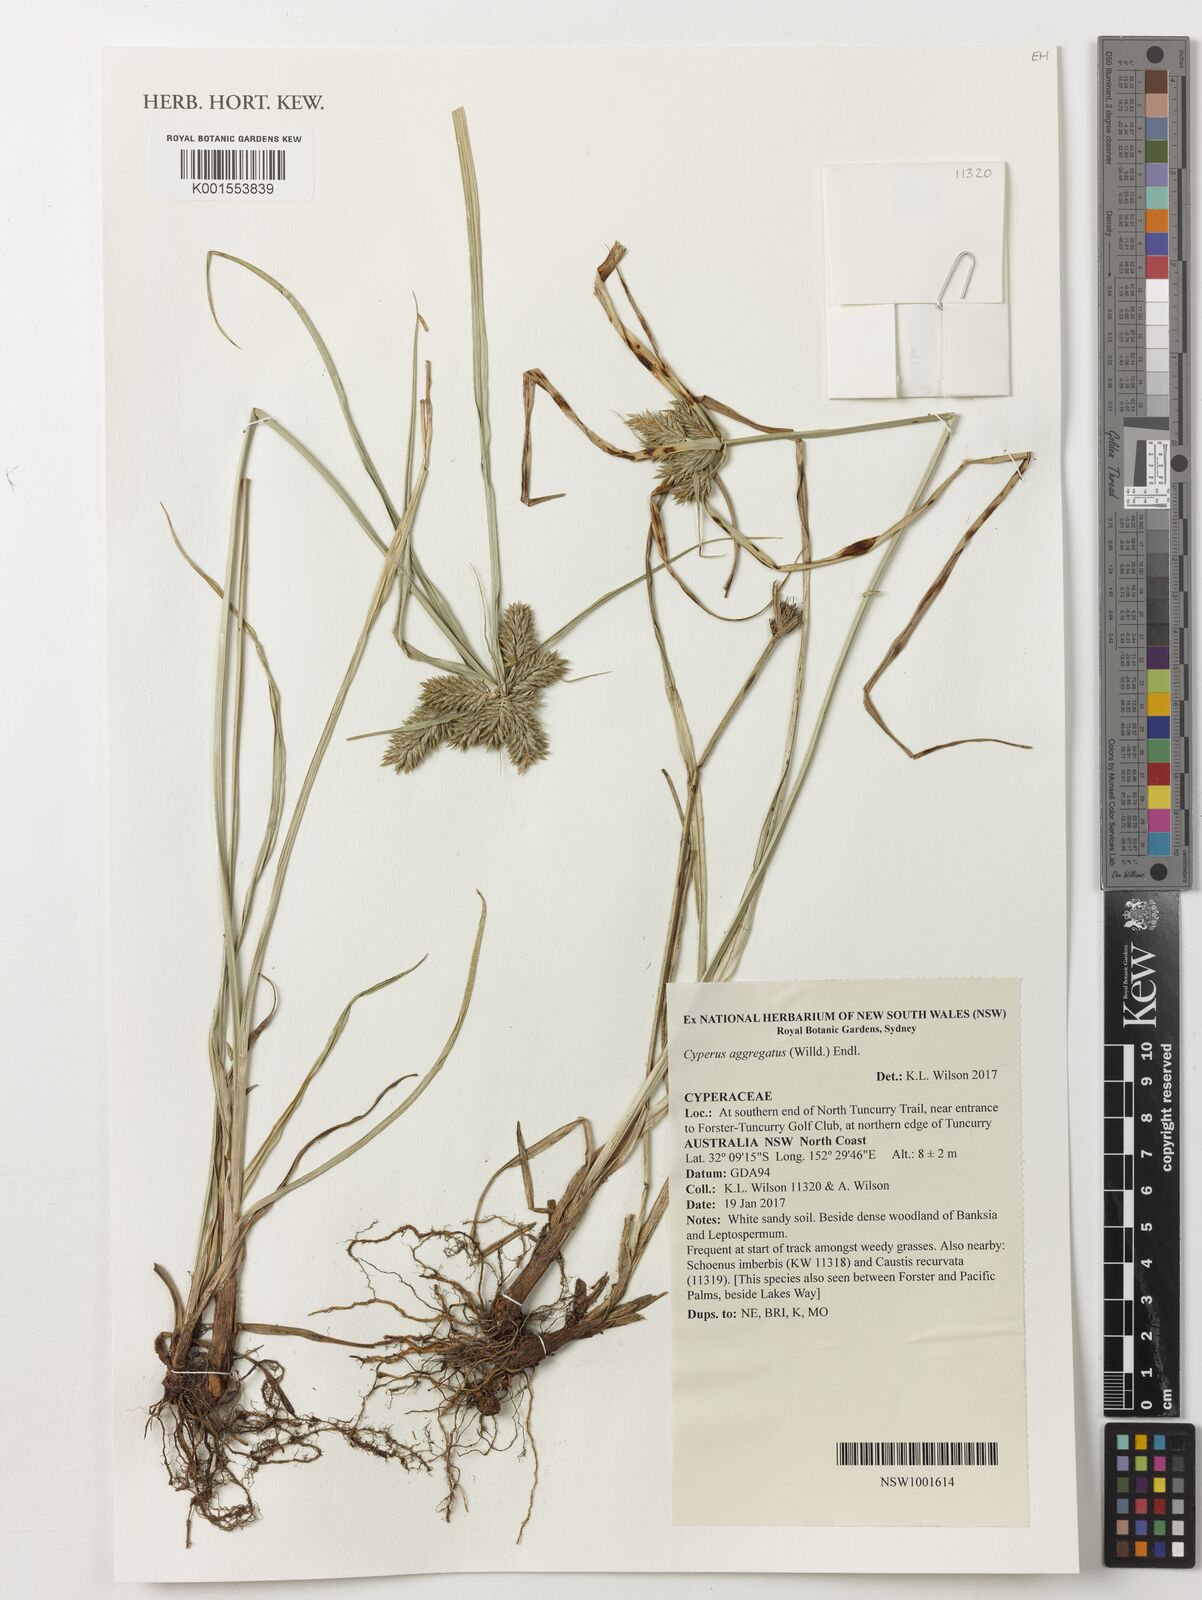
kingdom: Plantae
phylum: Tracheophyta
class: Liliopsida
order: Poales
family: Cyperaceae
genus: Cyperus
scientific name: Cyperus aggregatus
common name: Inflatedscale flatsedge
